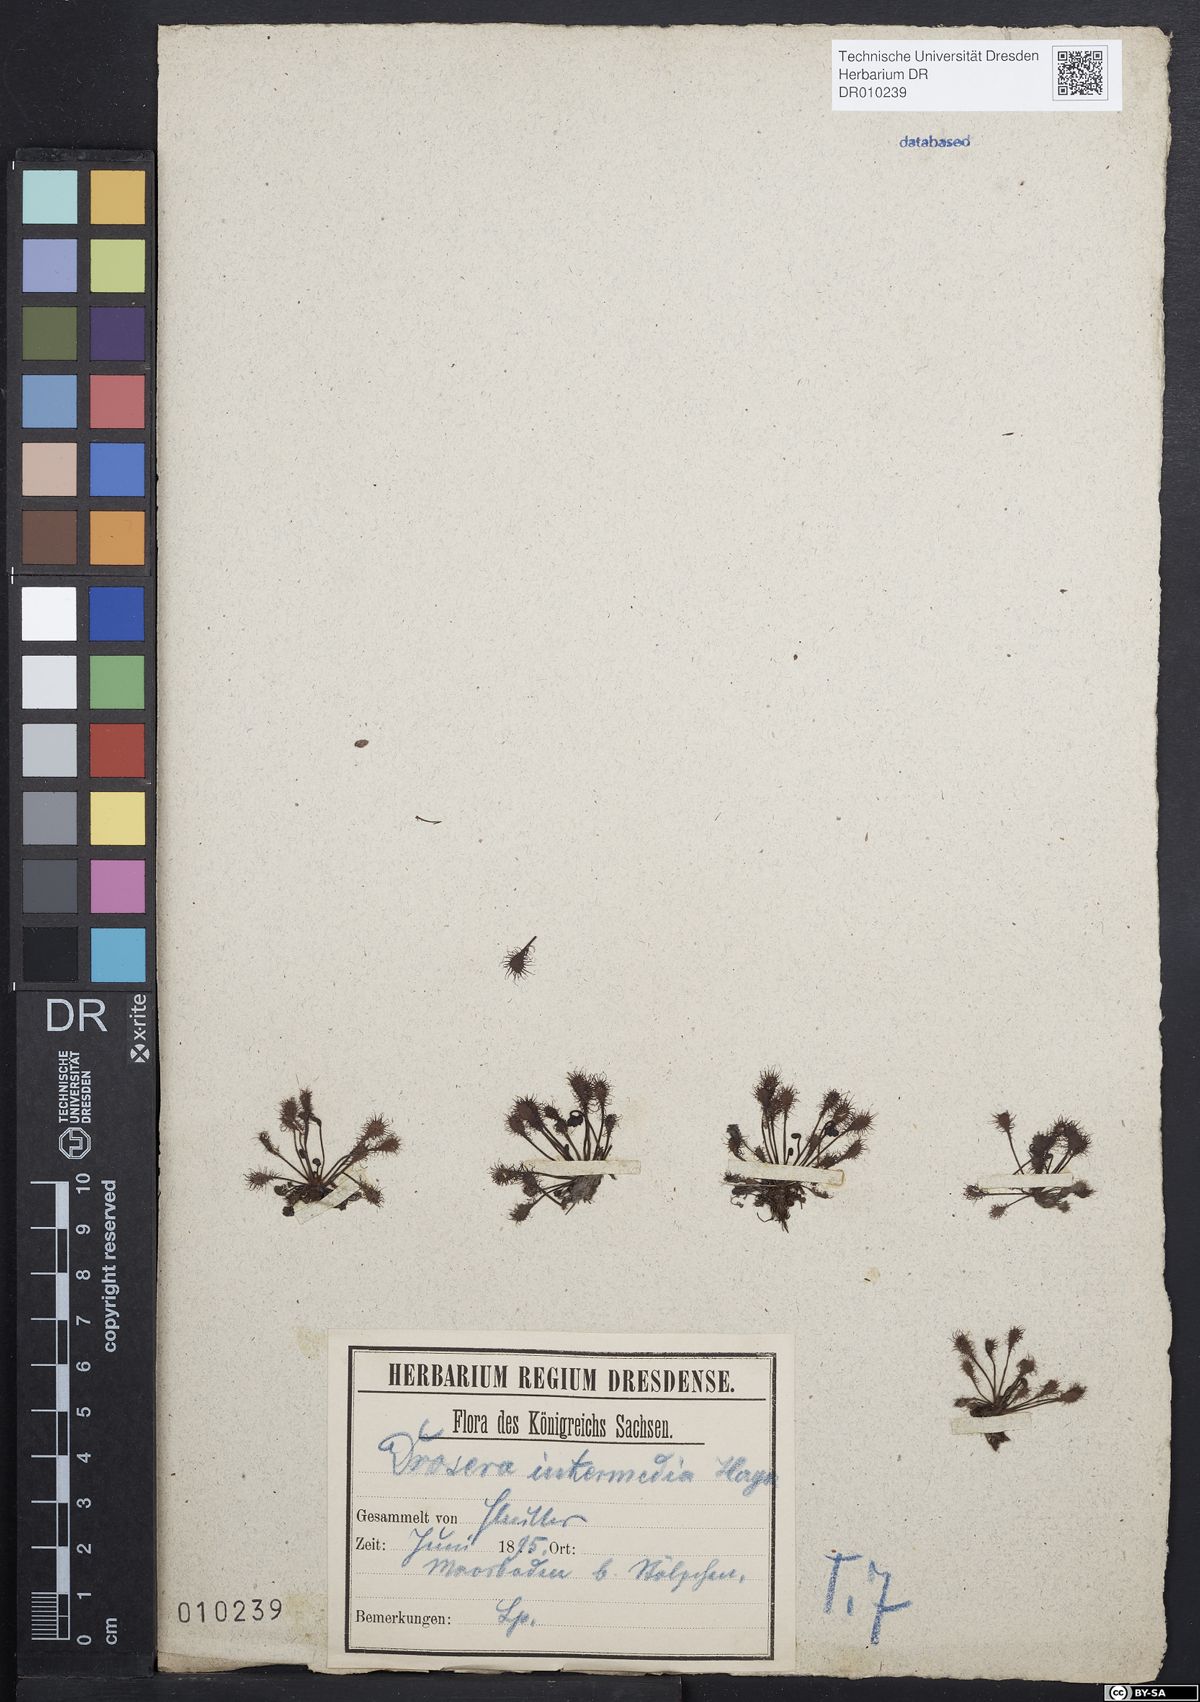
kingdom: Plantae
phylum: Tracheophyta
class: Magnoliopsida
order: Caryophyllales
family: Droseraceae
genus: Drosera
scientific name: Drosera intermedia
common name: Oblong-leaved sundew
